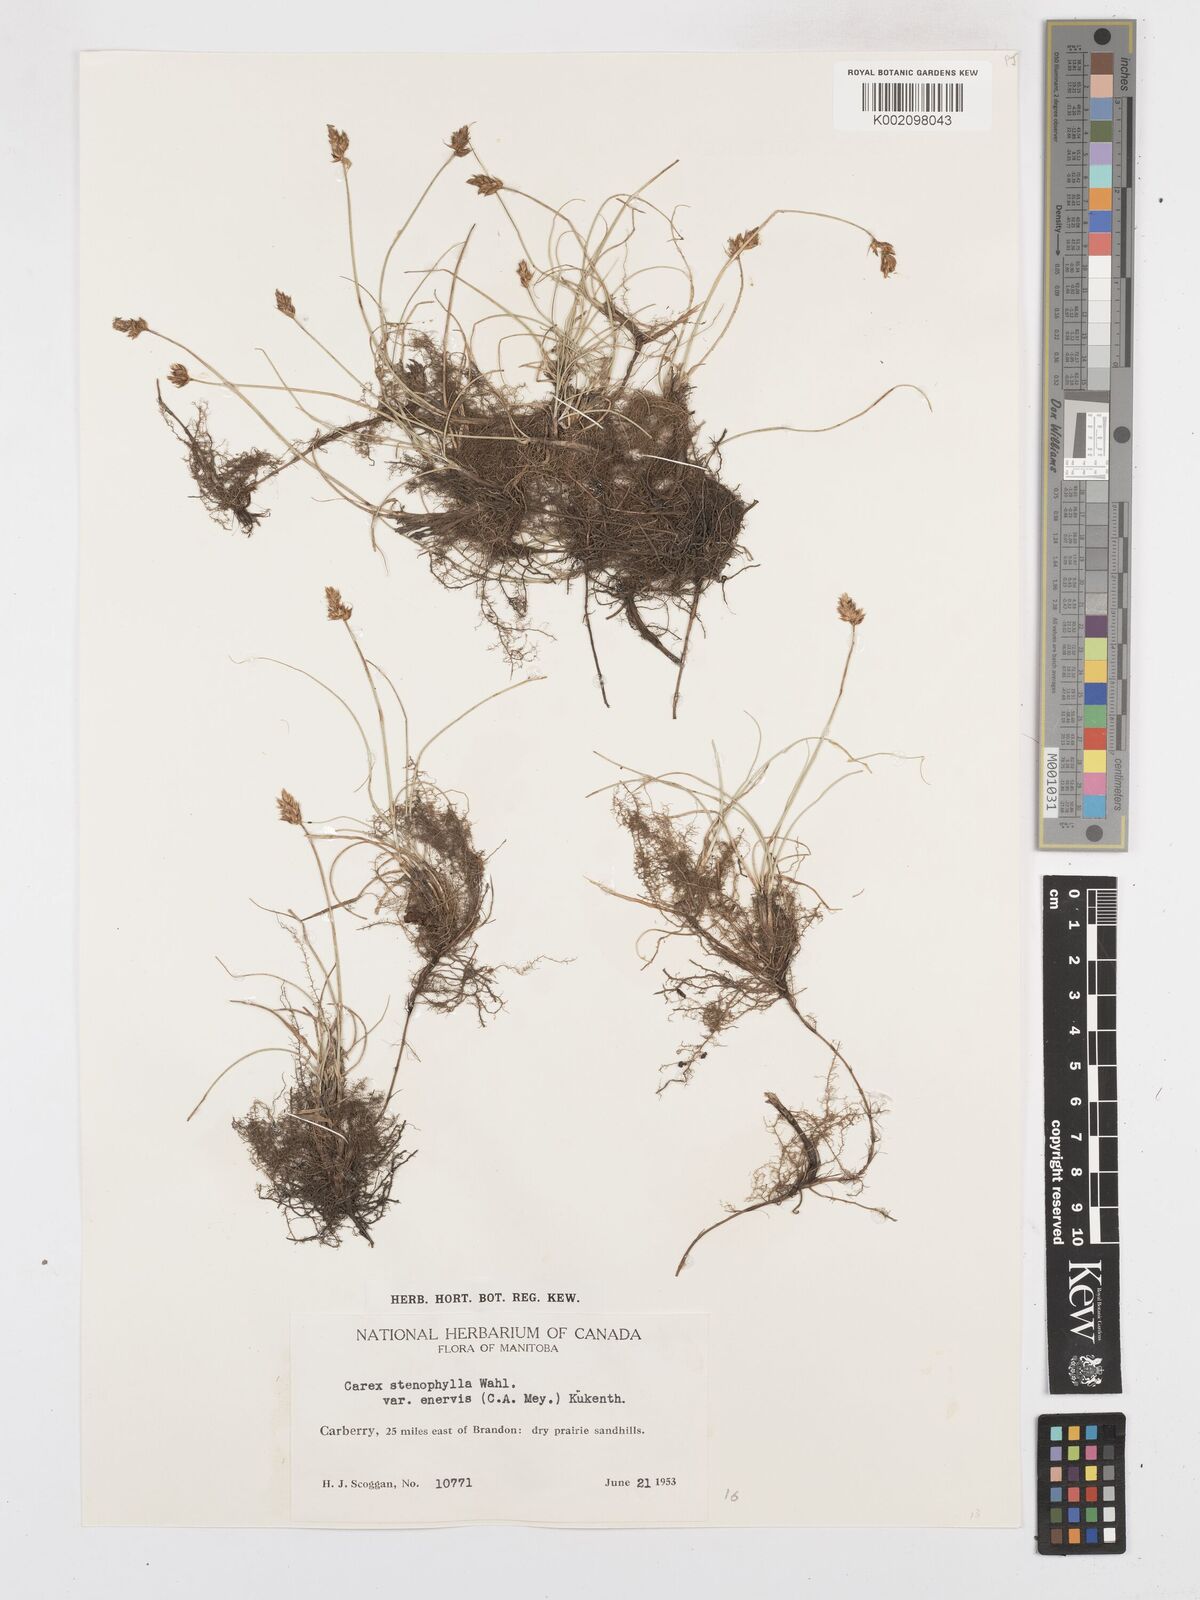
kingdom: Plantae
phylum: Tracheophyta
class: Liliopsida
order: Poales
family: Cyperaceae
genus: Carex
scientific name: Carex duriuscula
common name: Involute-leaved sedge
